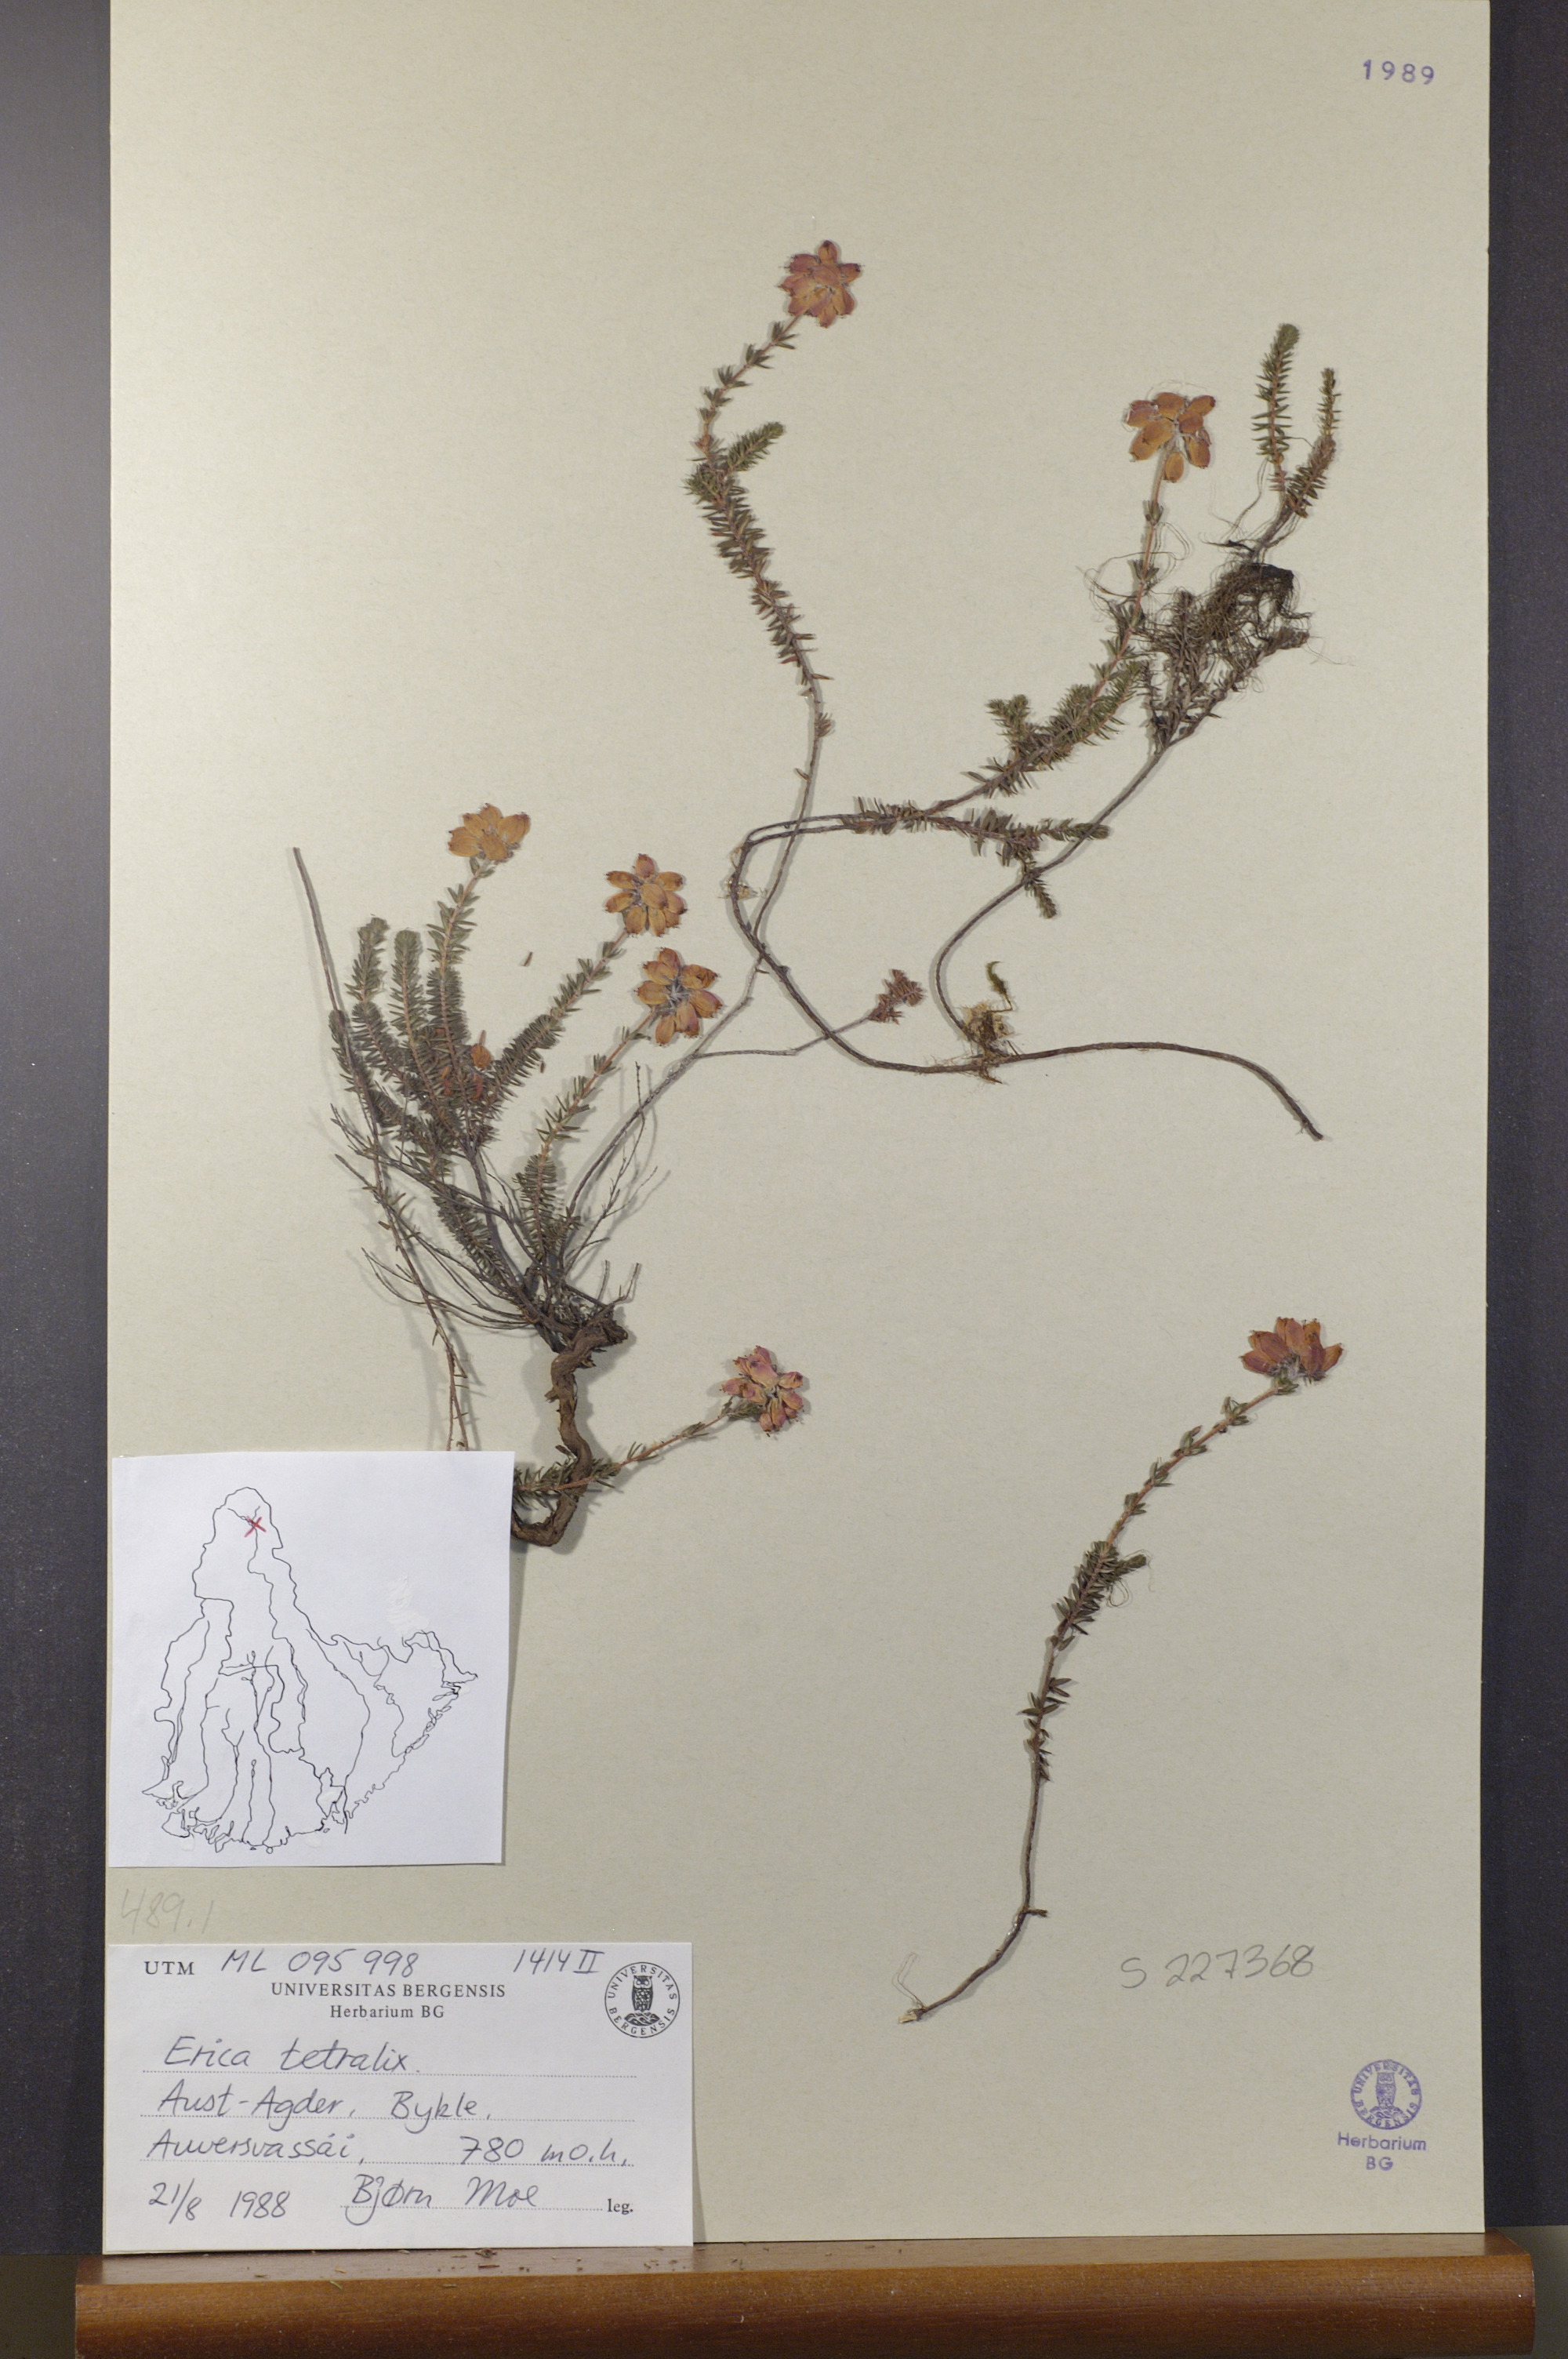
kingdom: Plantae
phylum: Tracheophyta
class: Magnoliopsida
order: Ericales
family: Ericaceae
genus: Erica
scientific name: Erica tetralix
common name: Cross-leaved heath
